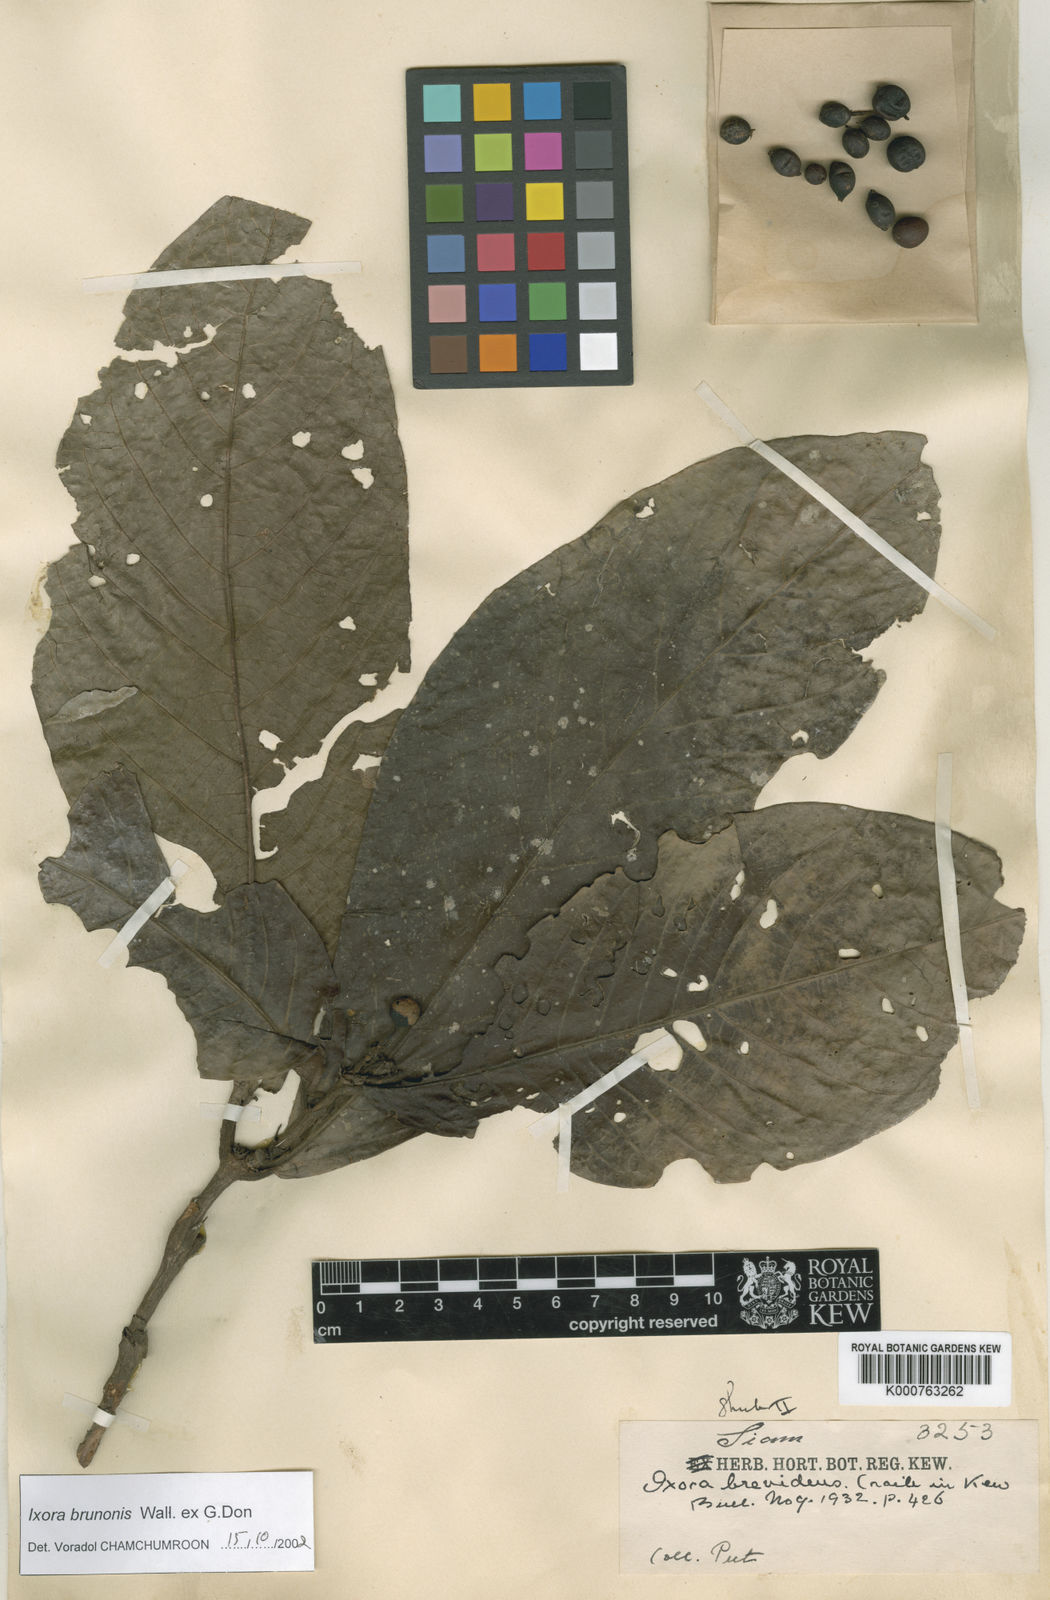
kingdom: Plantae
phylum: Tracheophyta
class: Magnoliopsida
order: Gentianales
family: Rubiaceae
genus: Ixora
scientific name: Ixora brunonis
